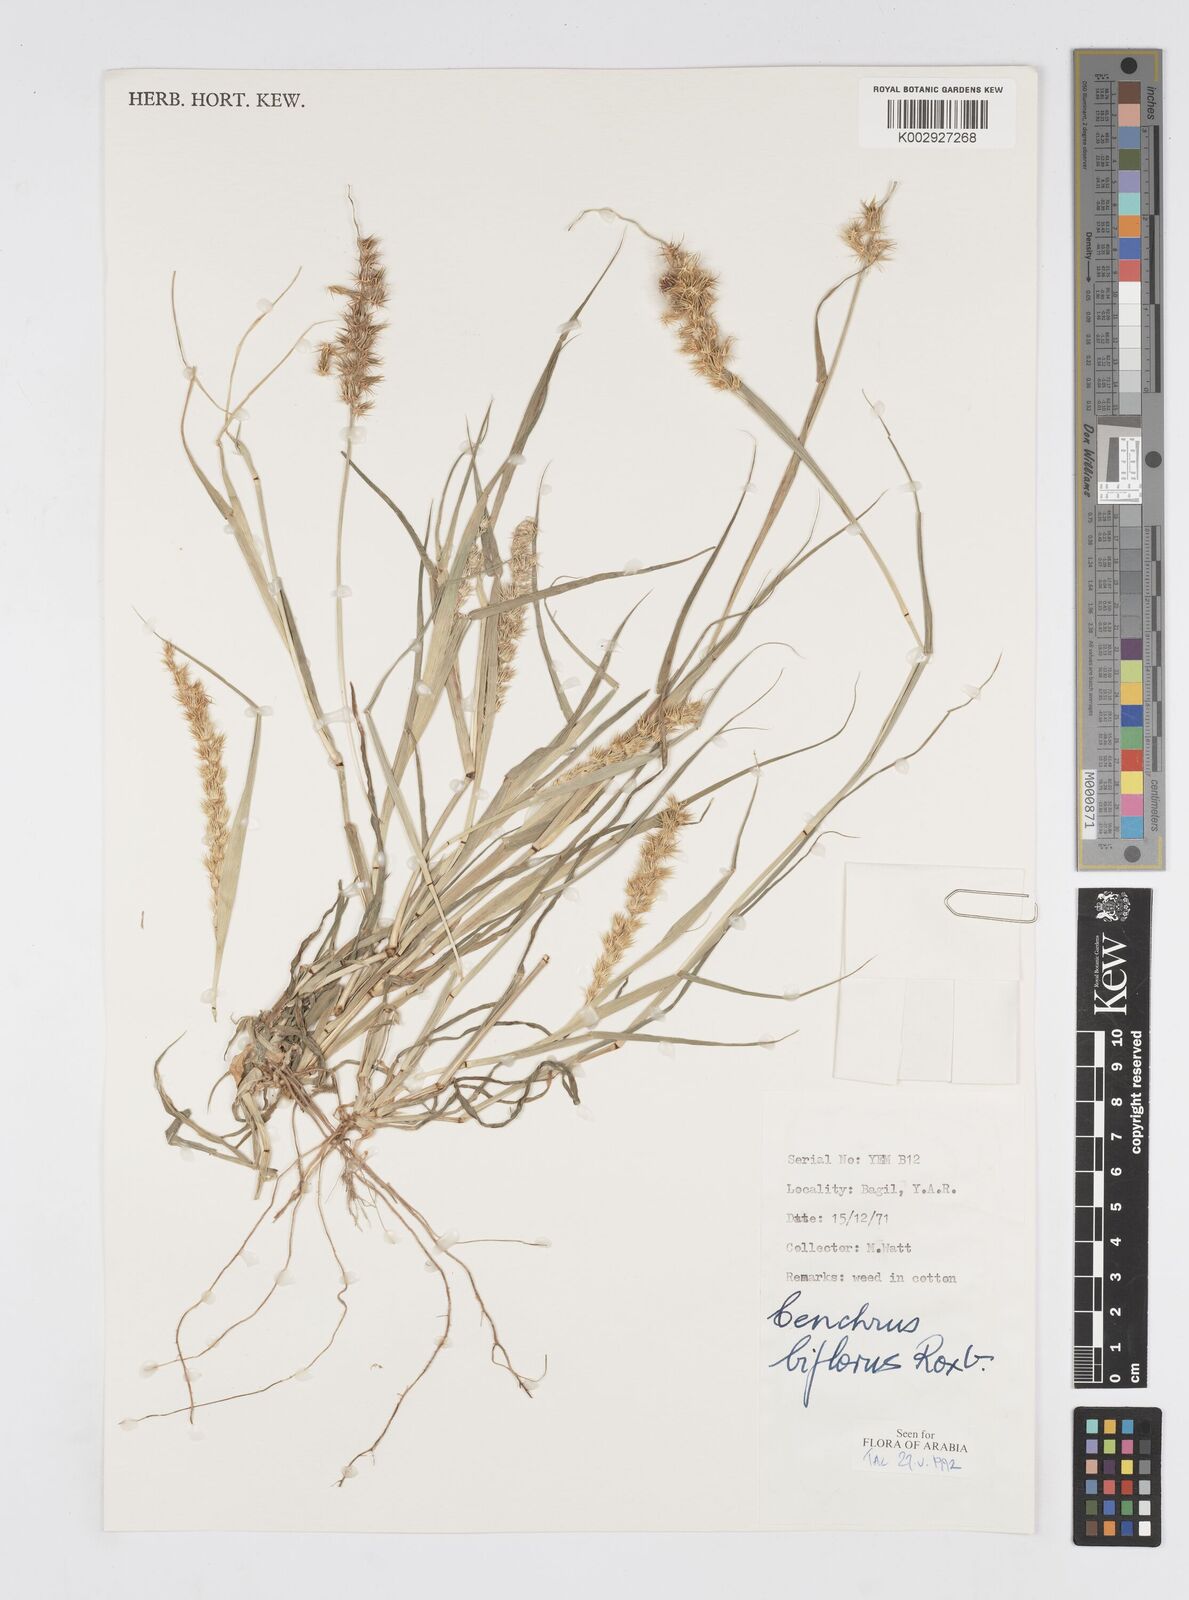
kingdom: Plantae
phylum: Tracheophyta
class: Liliopsida
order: Poales
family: Poaceae
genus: Cenchrus
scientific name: Cenchrus biflorus
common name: Indian sandbur
